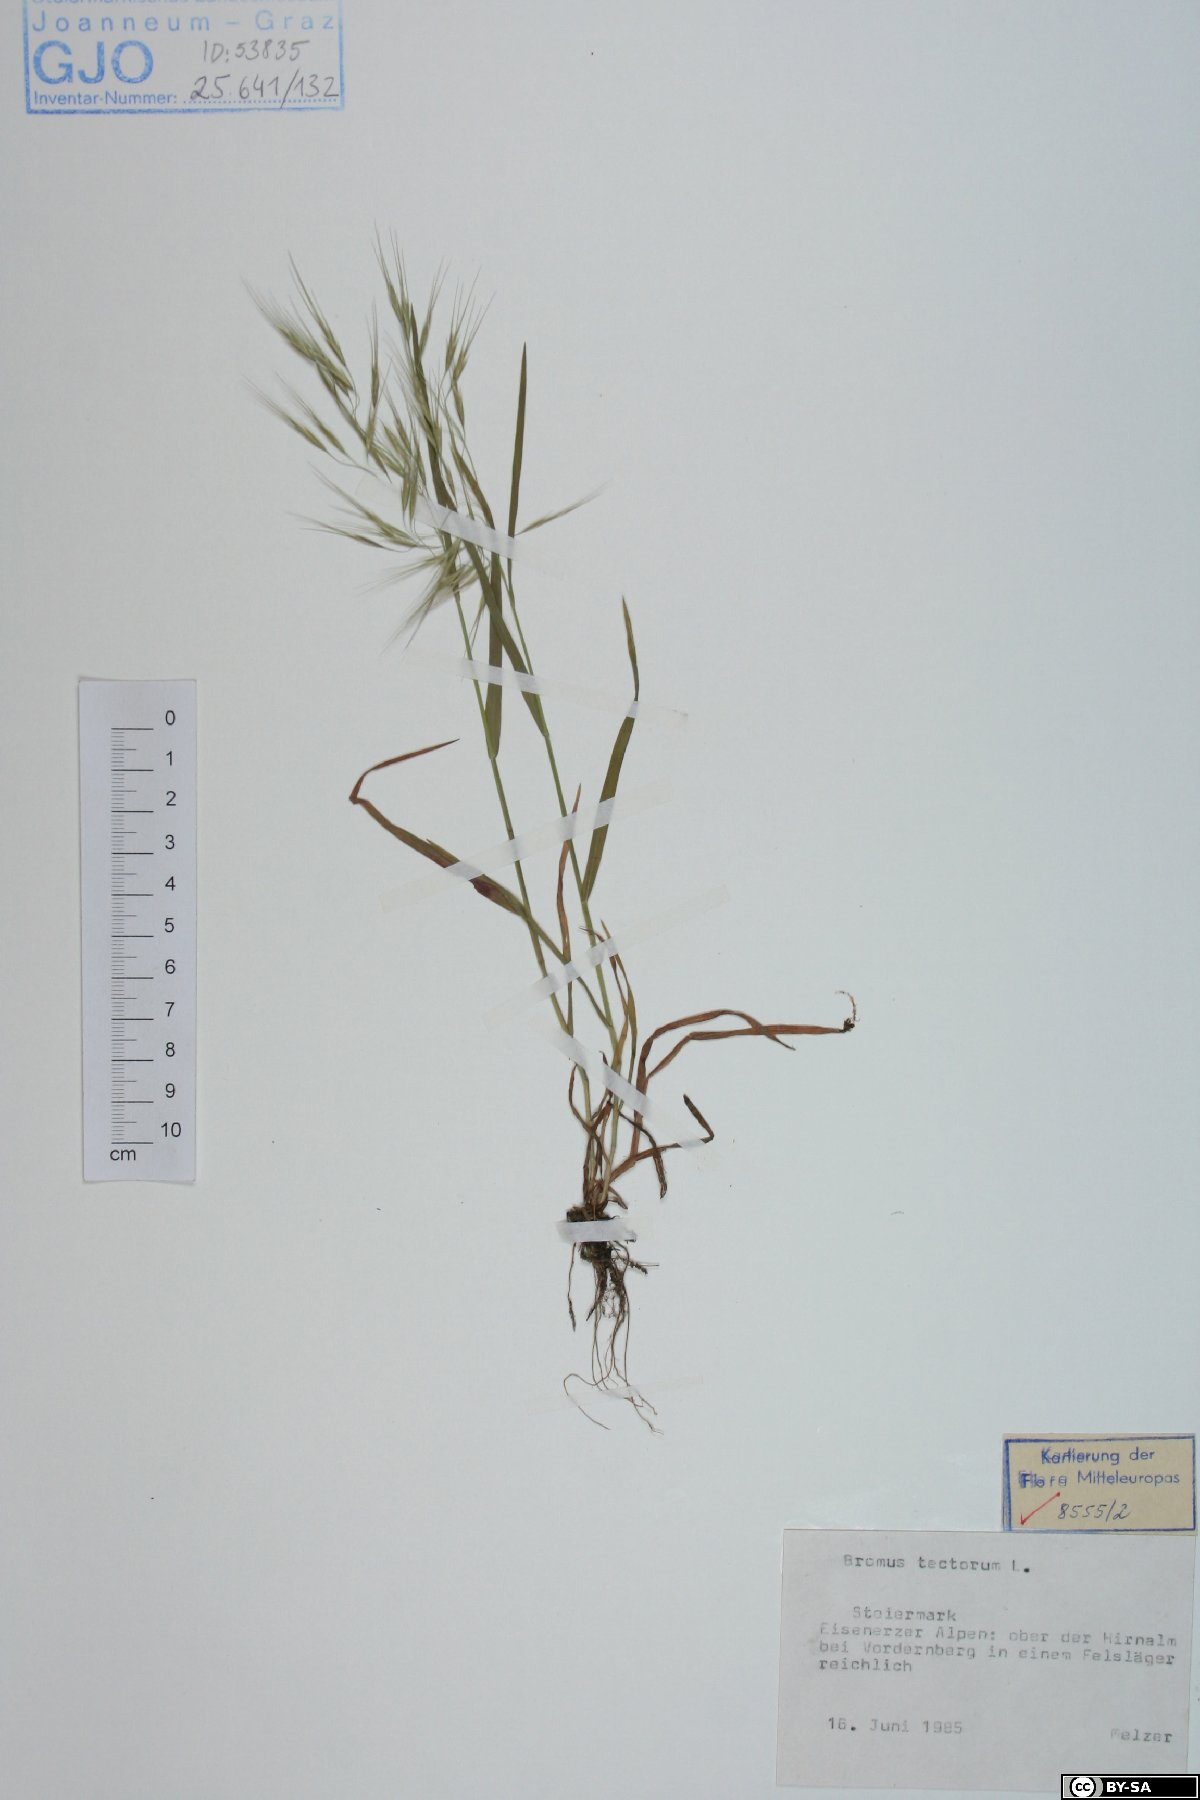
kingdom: Plantae
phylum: Tracheophyta
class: Liliopsida
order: Poales
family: Poaceae
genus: Bromus
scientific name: Bromus tectorum
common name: Cheatgrass
